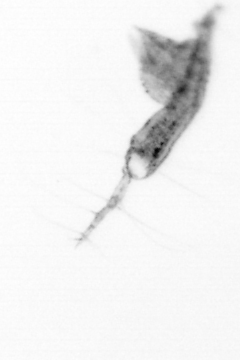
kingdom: Animalia
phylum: Arthropoda
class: Copepoda
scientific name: Copepoda
